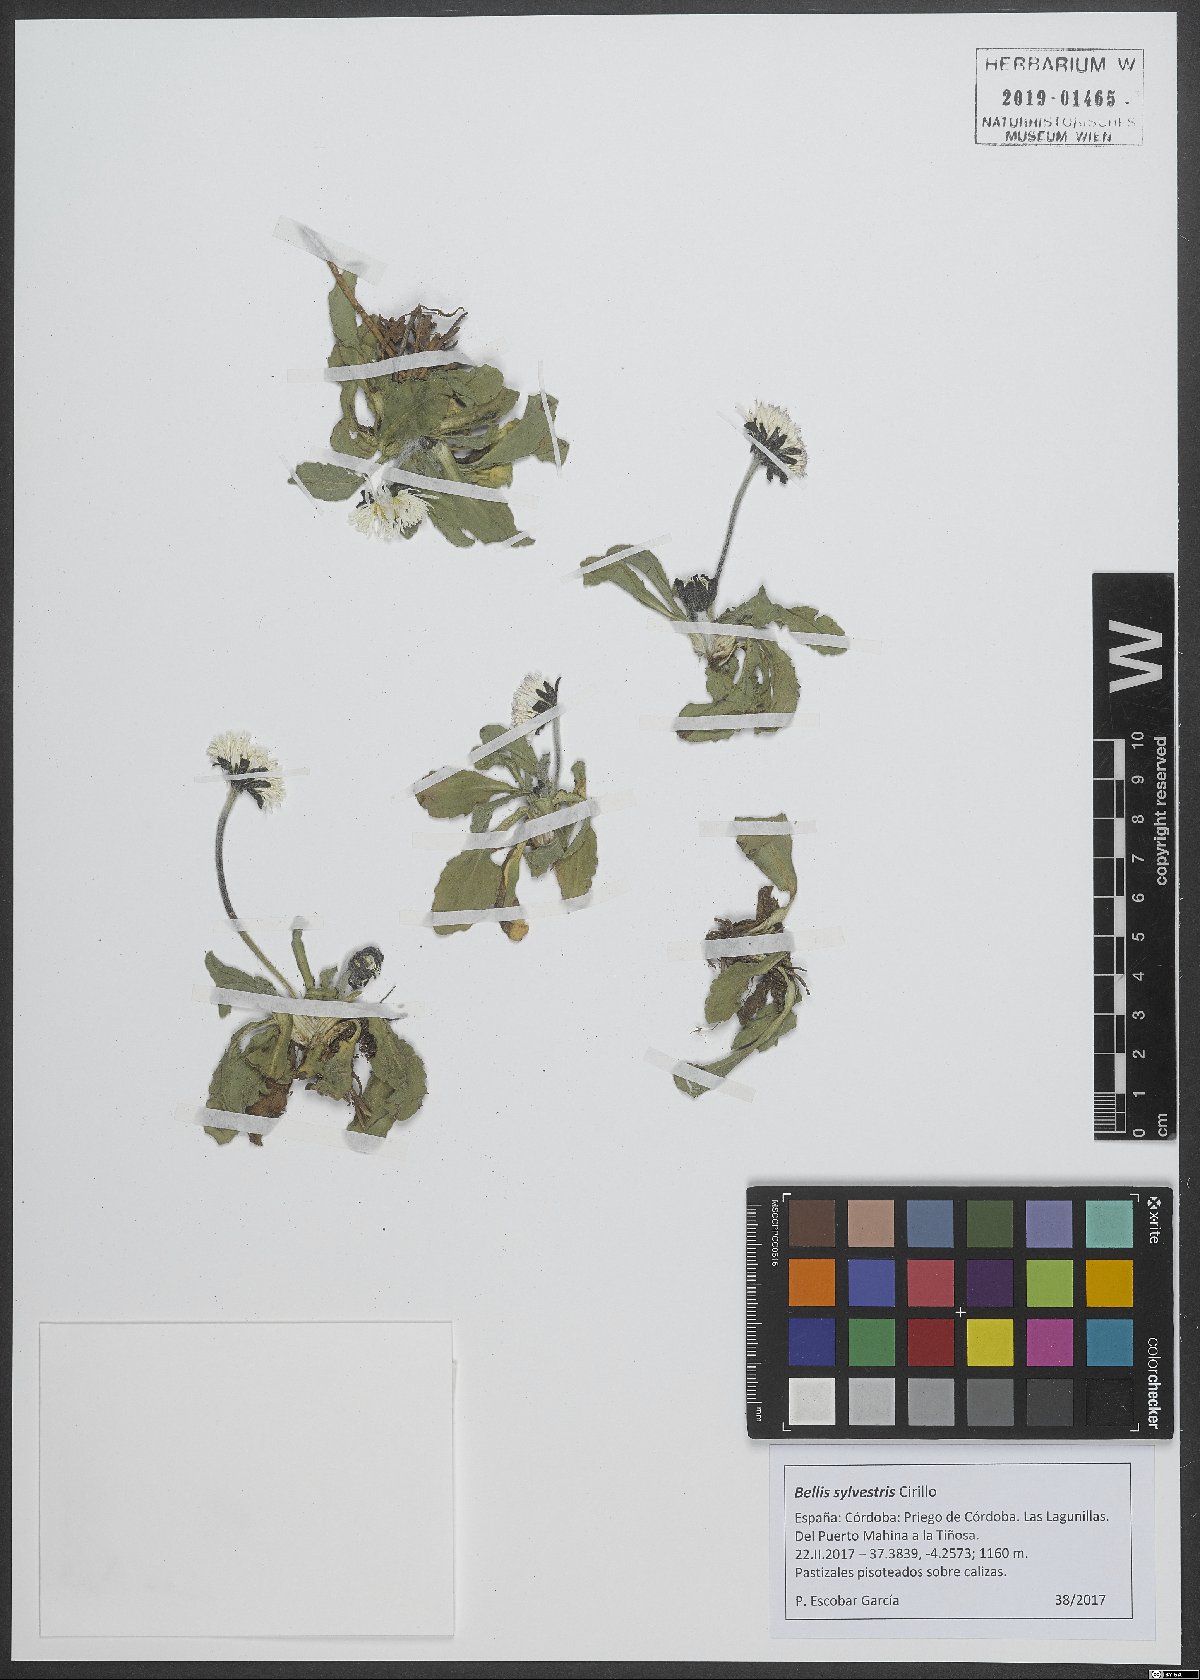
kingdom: Plantae
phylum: Tracheophyta
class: Magnoliopsida
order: Asterales
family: Asteraceae
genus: Bellis
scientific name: Bellis sylvestris
